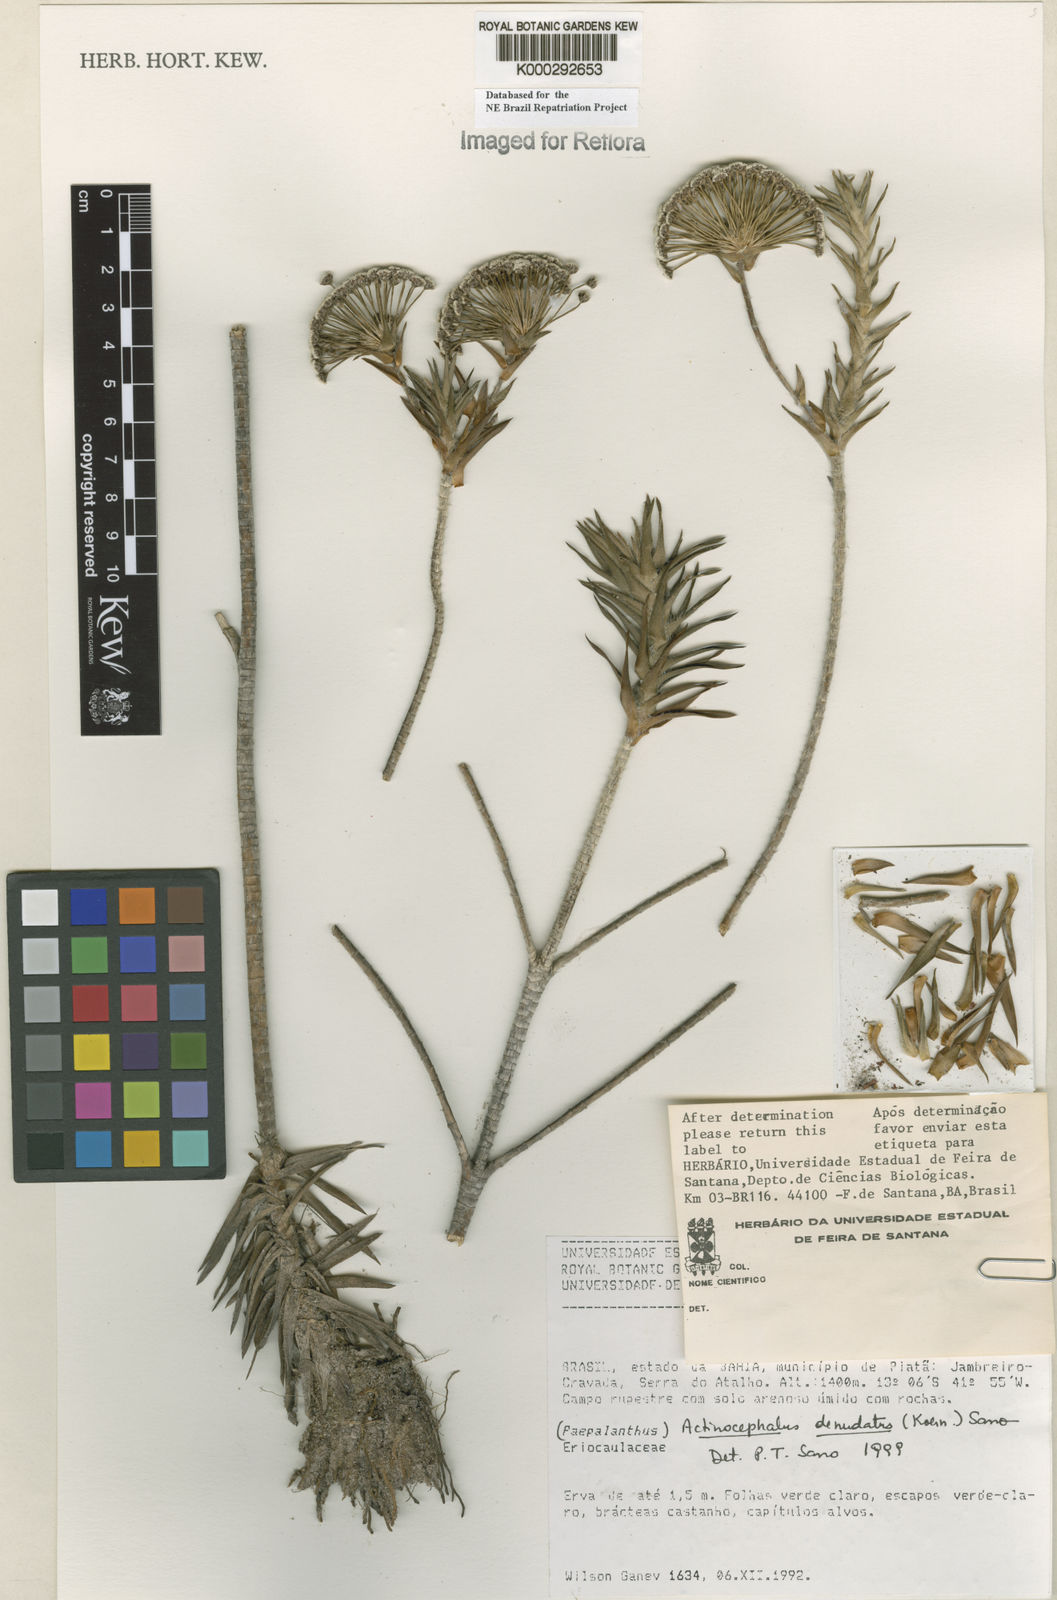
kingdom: Plantae
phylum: Tracheophyta
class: Liliopsida
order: Poales
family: Eriocaulaceae
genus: Paepalanthus
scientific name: Paepalanthus denudatus
